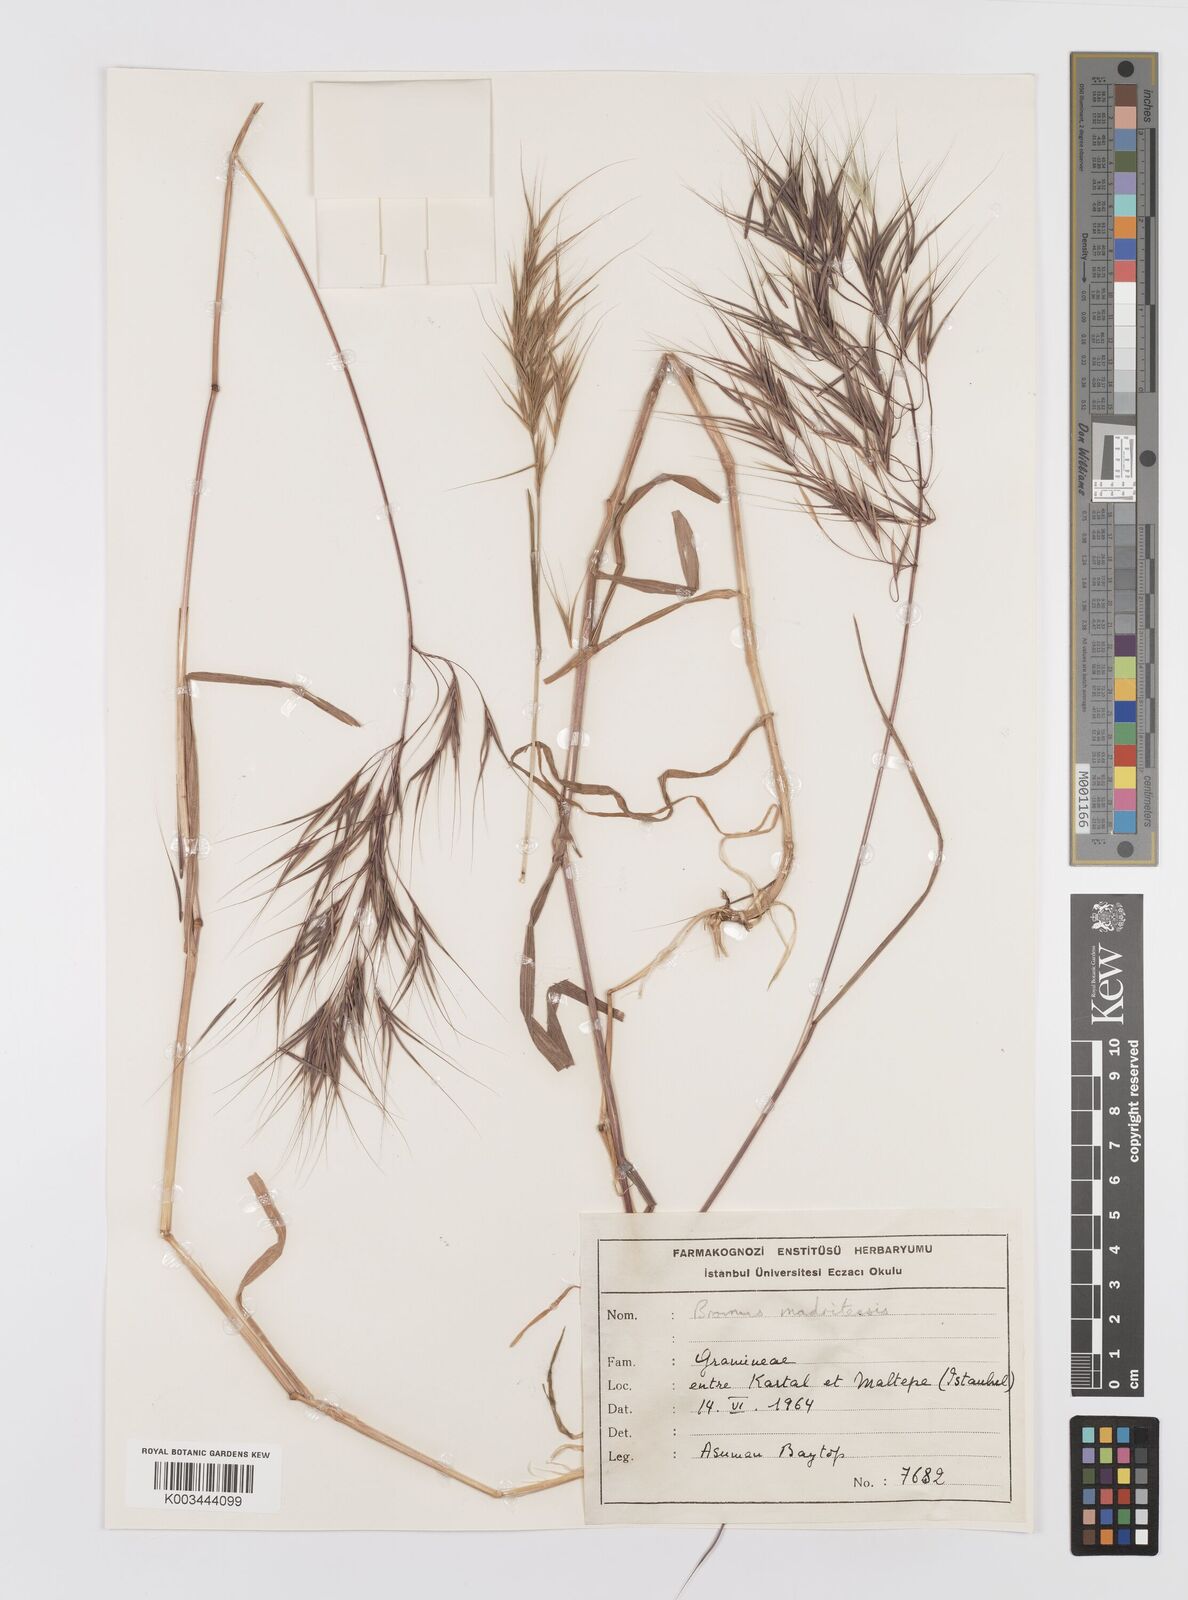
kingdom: Plantae
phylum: Tracheophyta
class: Liliopsida
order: Poales
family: Poaceae
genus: Bromus
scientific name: Bromus madritensis
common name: Compact brome
